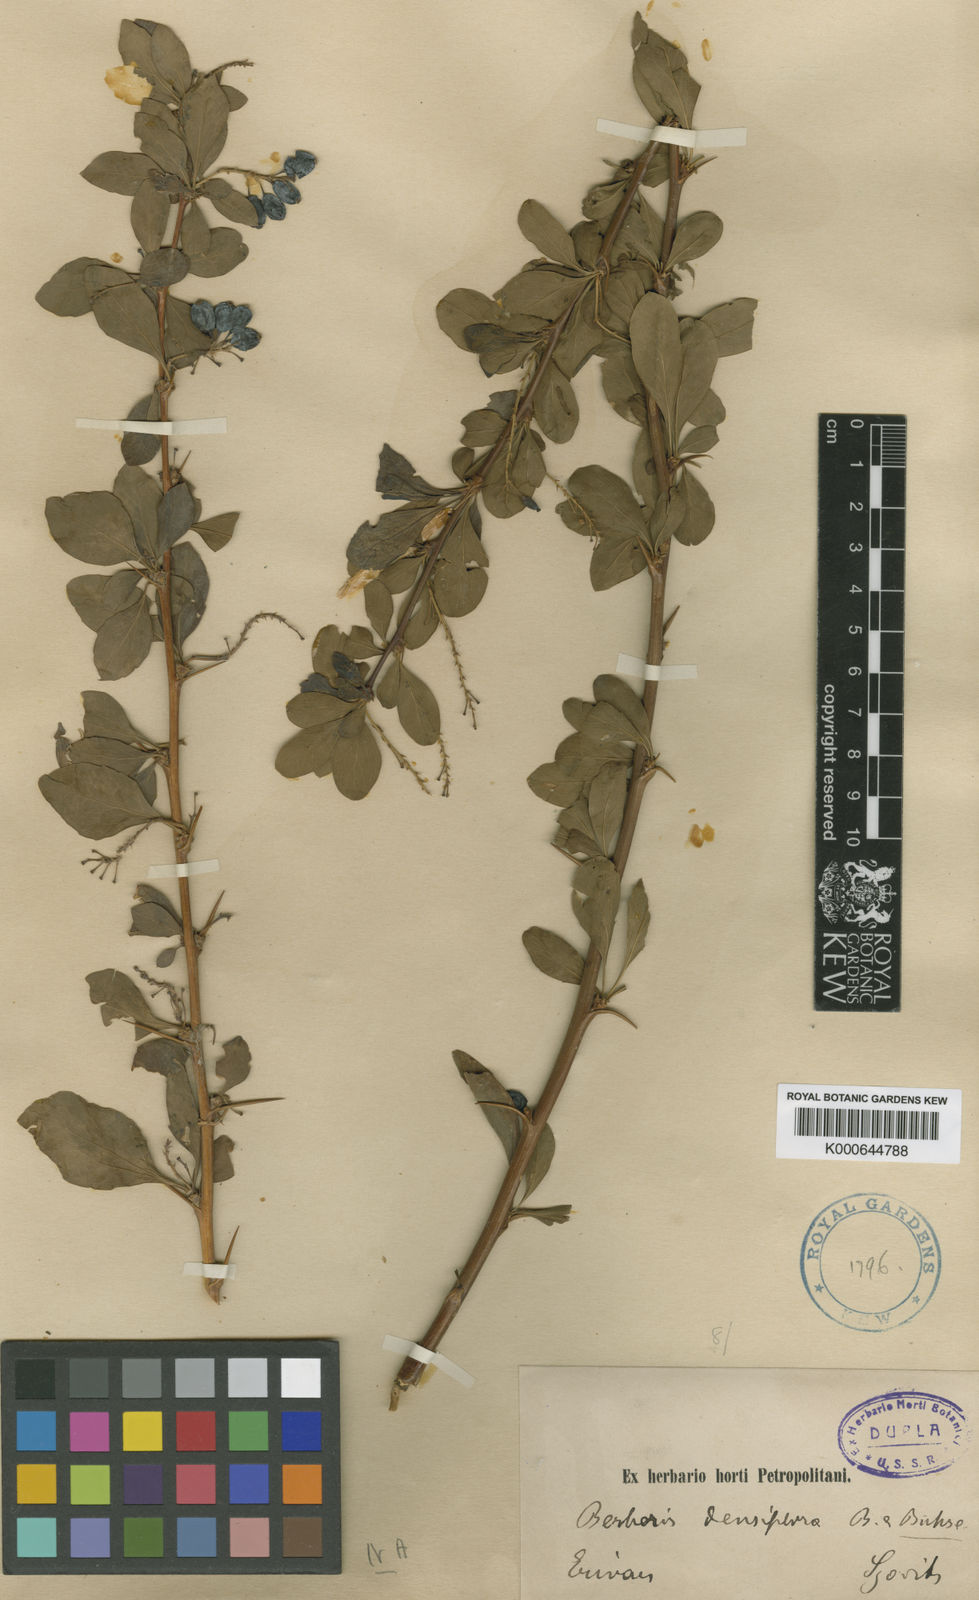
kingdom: Plantae
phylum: Tracheophyta
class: Magnoliopsida
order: Ranunculales
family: Berberidaceae
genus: Berberis
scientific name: Berberis integerrima
